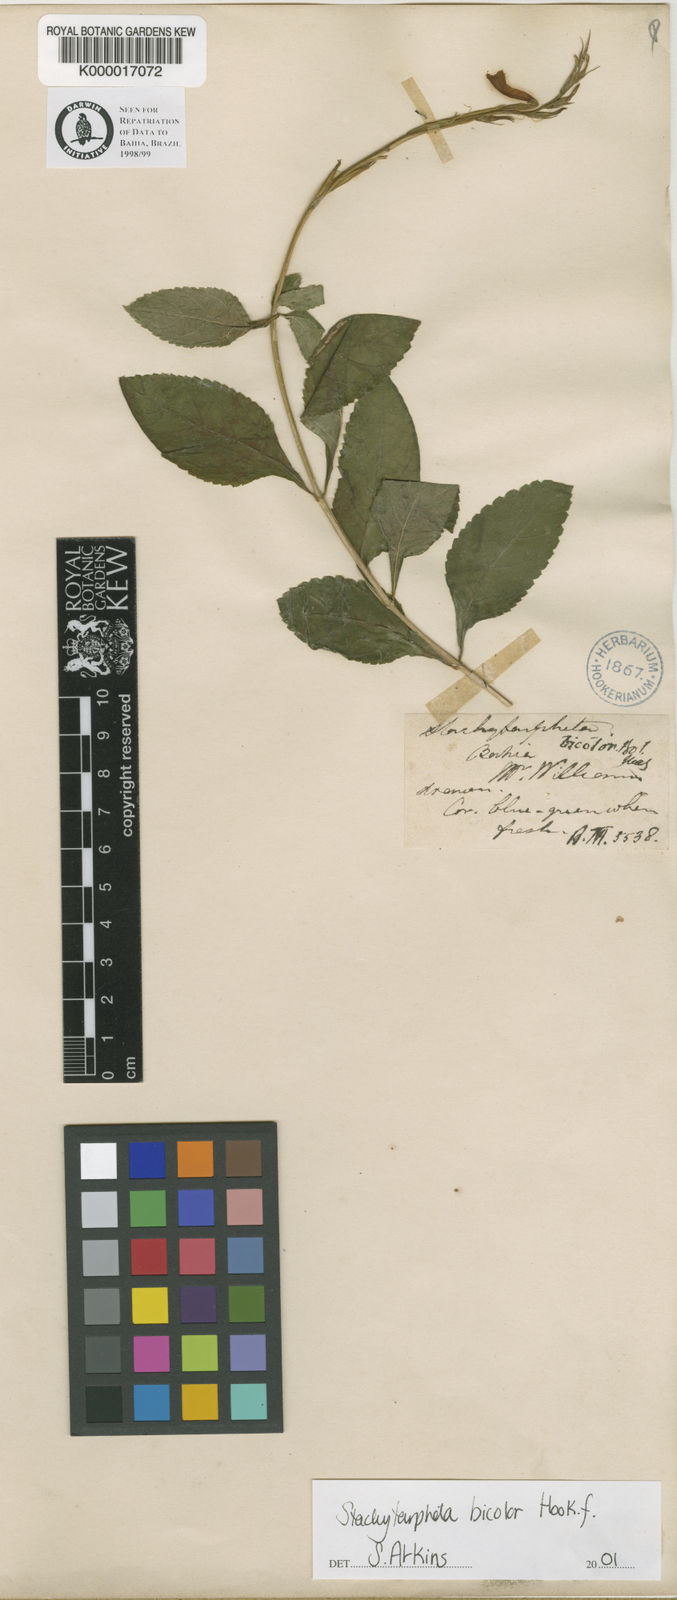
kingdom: Plantae
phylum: Tracheophyta
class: Magnoliopsida
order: Lamiales
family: Verbenaceae
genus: Stachytarpheta
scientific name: Stachytarpheta bicolor
